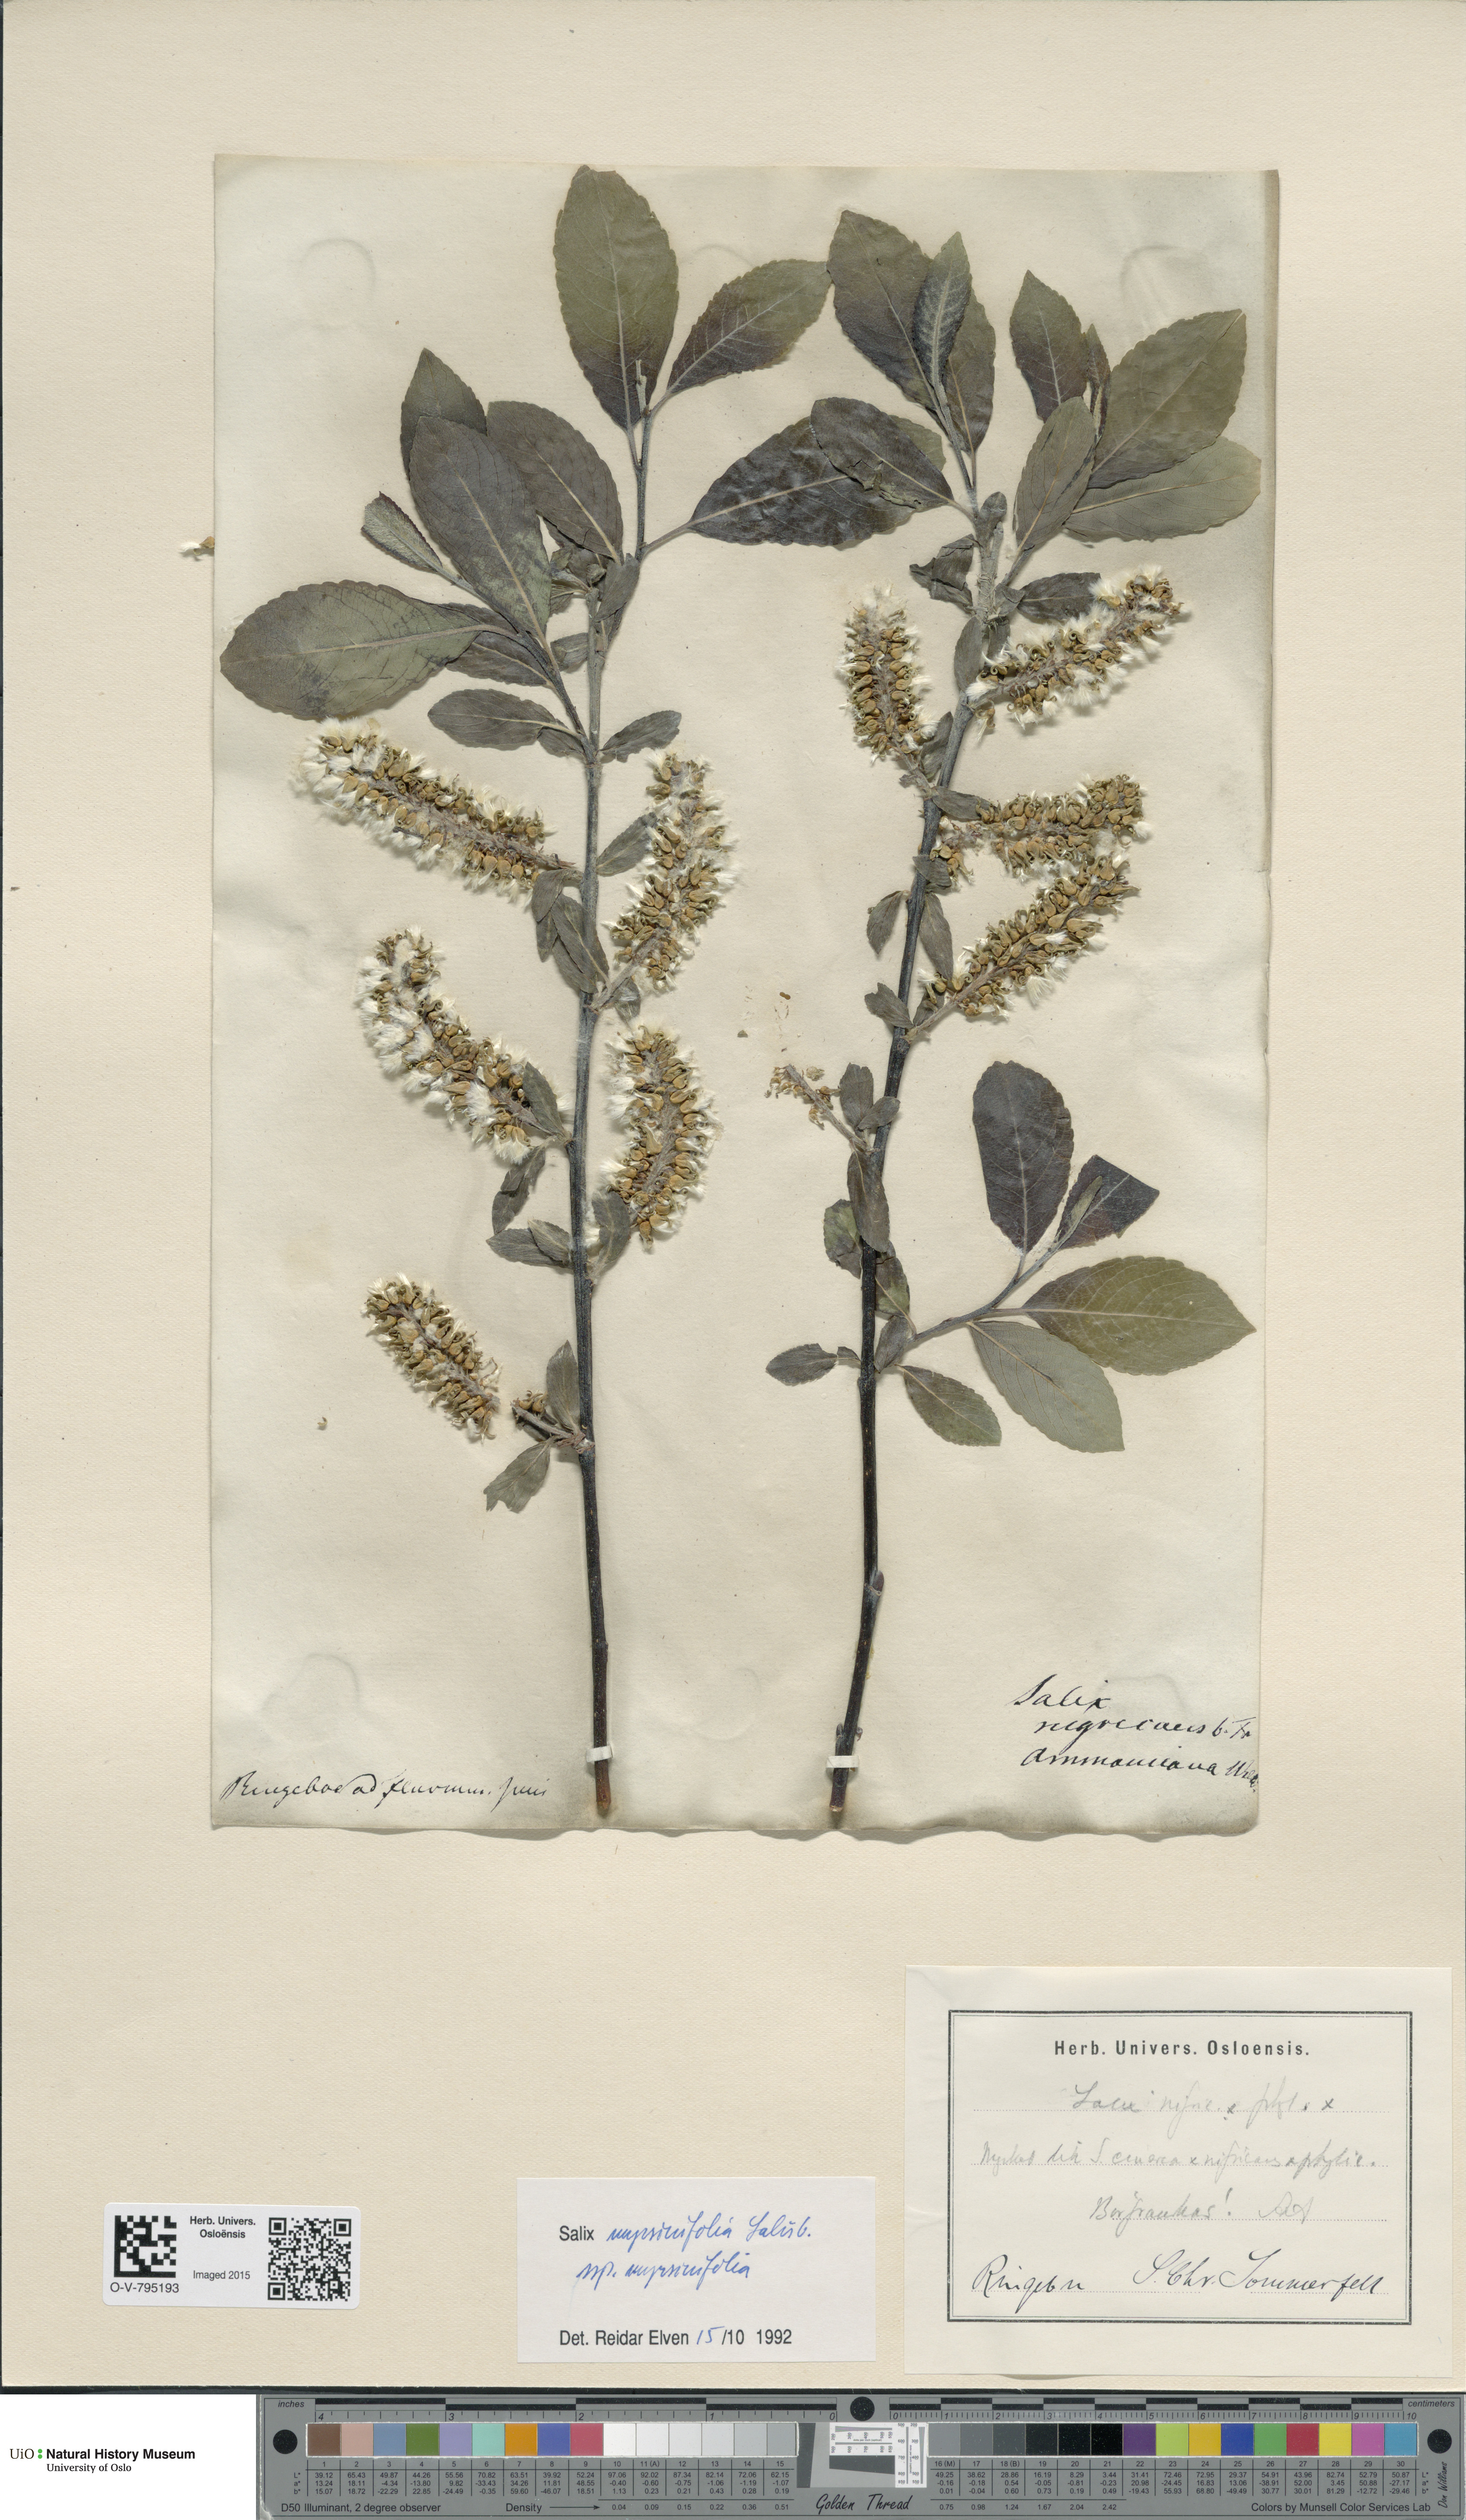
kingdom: Plantae
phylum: Tracheophyta
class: Magnoliopsida
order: Malpighiales
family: Salicaceae
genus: Salix
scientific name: Salix myrsinifolia
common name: Dark-leaved willow
